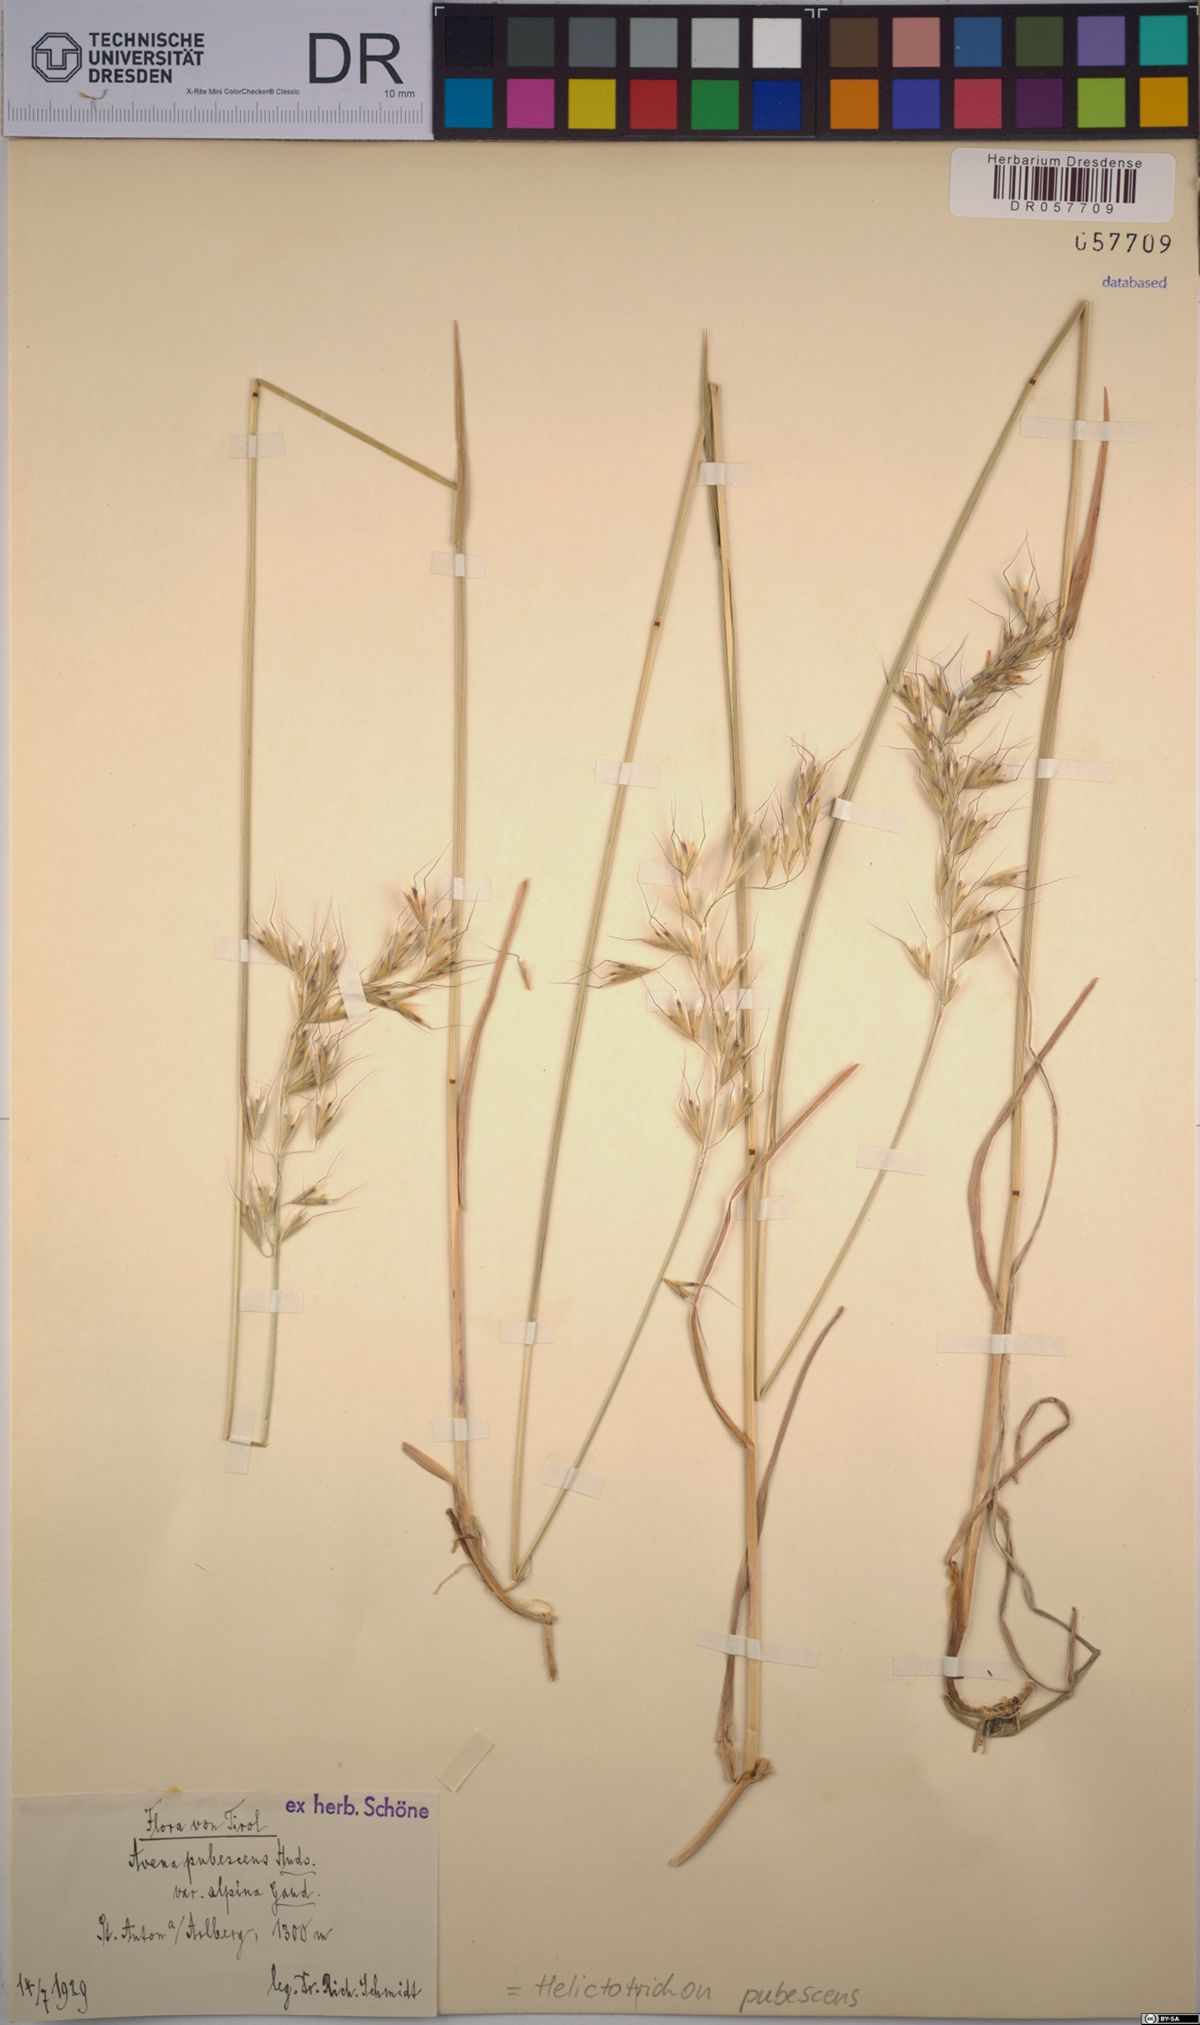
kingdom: Plantae
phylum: Tracheophyta
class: Liliopsida
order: Poales
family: Poaceae
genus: Avenula
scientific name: Avenula pubescens
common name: Downy alpine oatgrass
